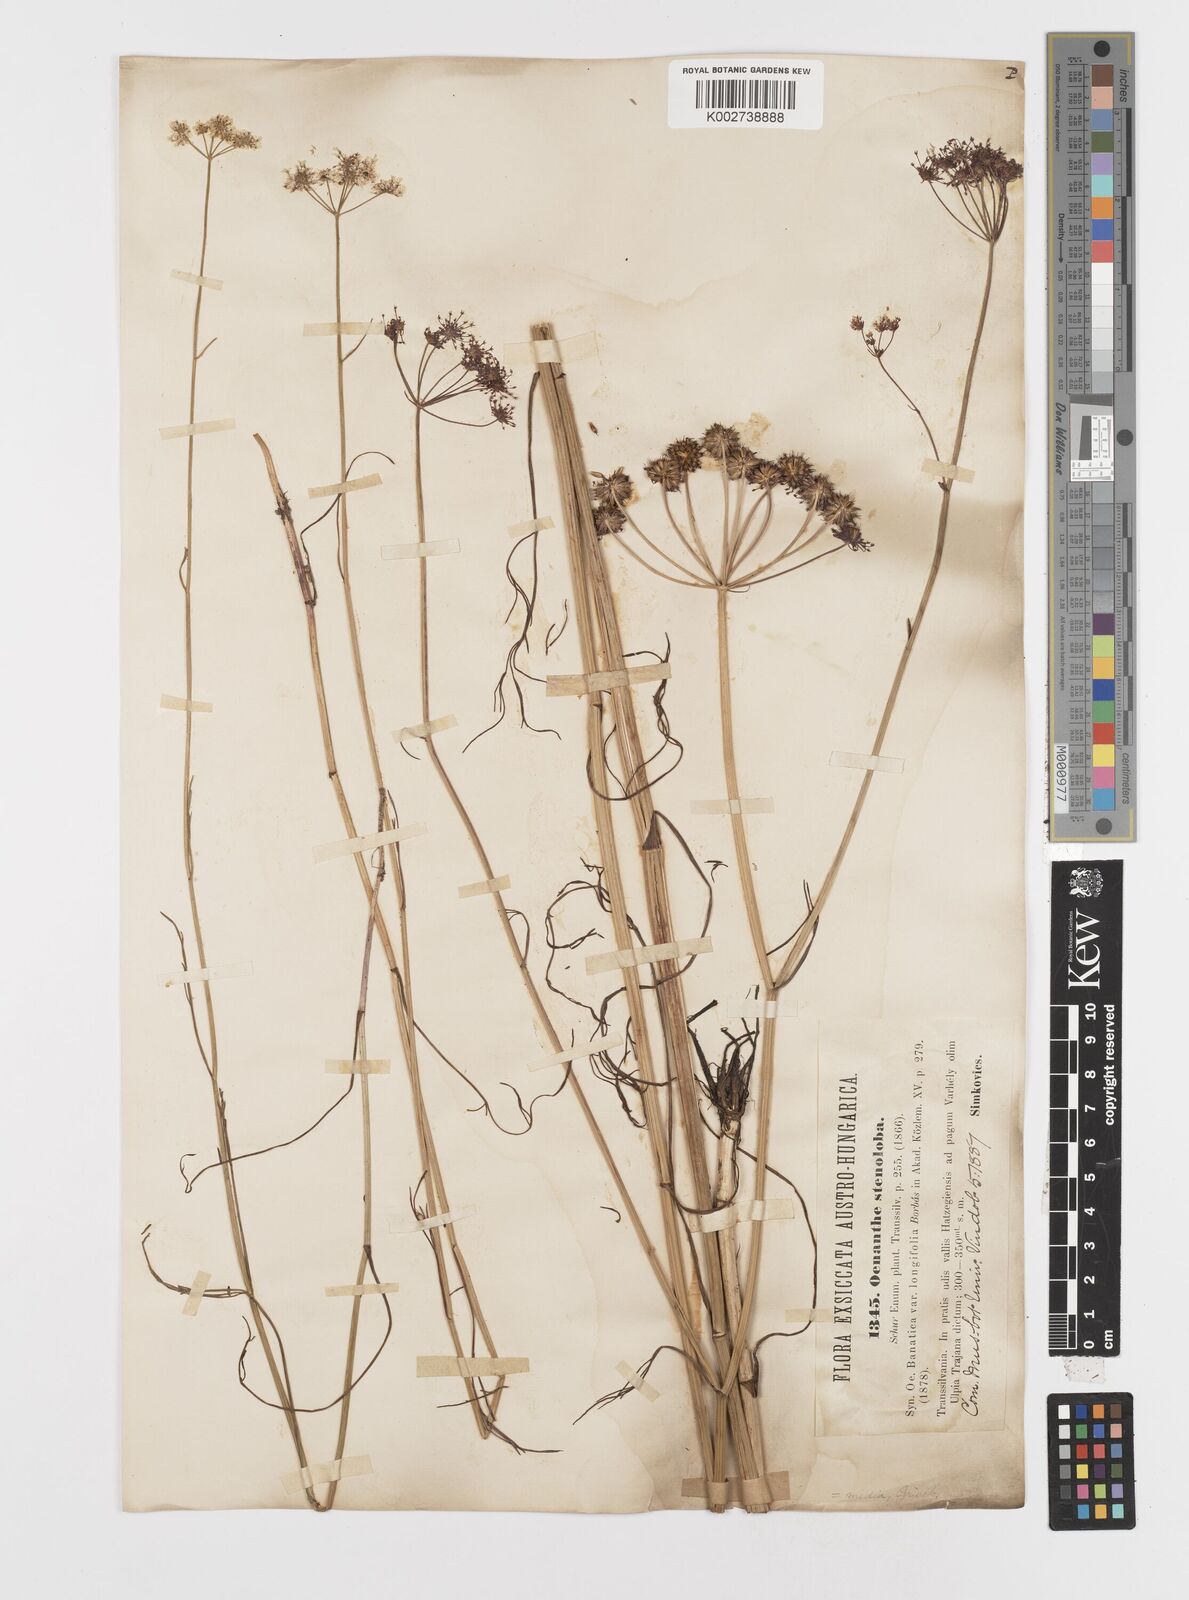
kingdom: Plantae
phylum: Tracheophyta
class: Magnoliopsida
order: Apiales
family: Apiaceae
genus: Oenanthe
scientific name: Oenanthe
